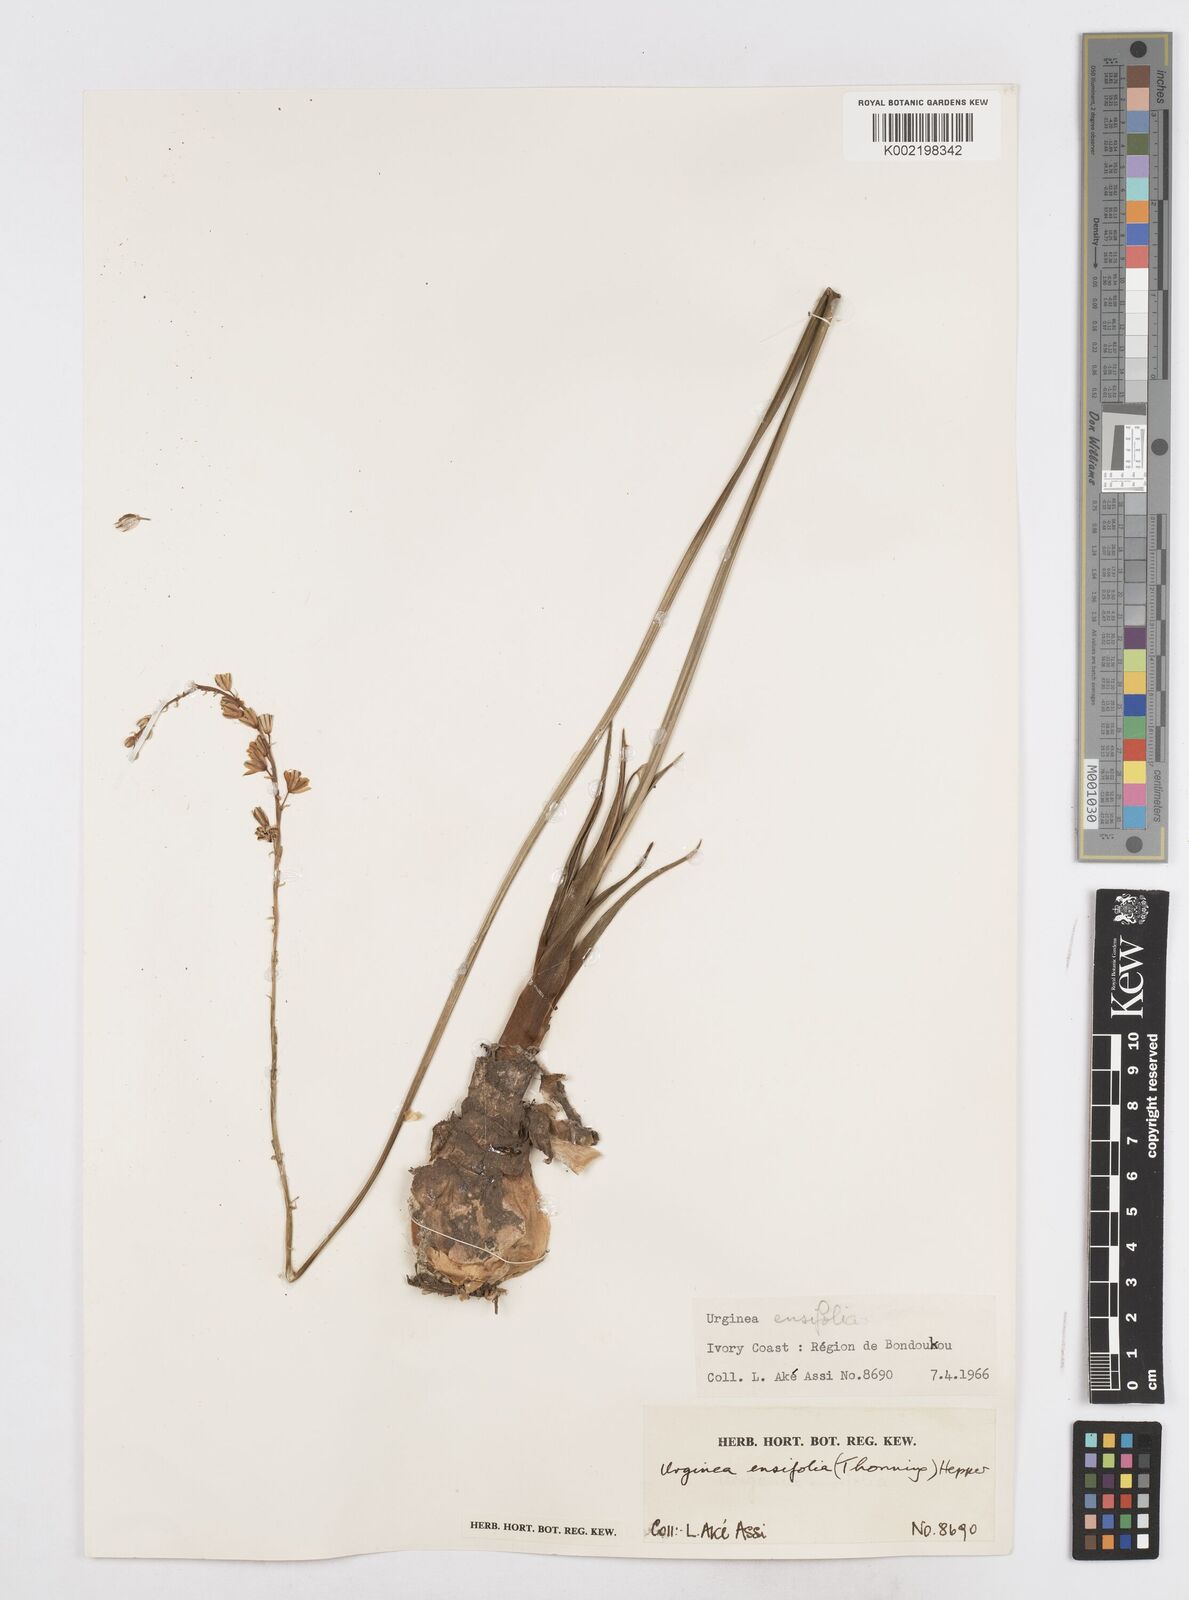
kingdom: Plantae
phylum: Tracheophyta
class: Liliopsida
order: Asparagales
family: Asparagaceae
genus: Ledebouria
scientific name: Ledebouria ensifolia
